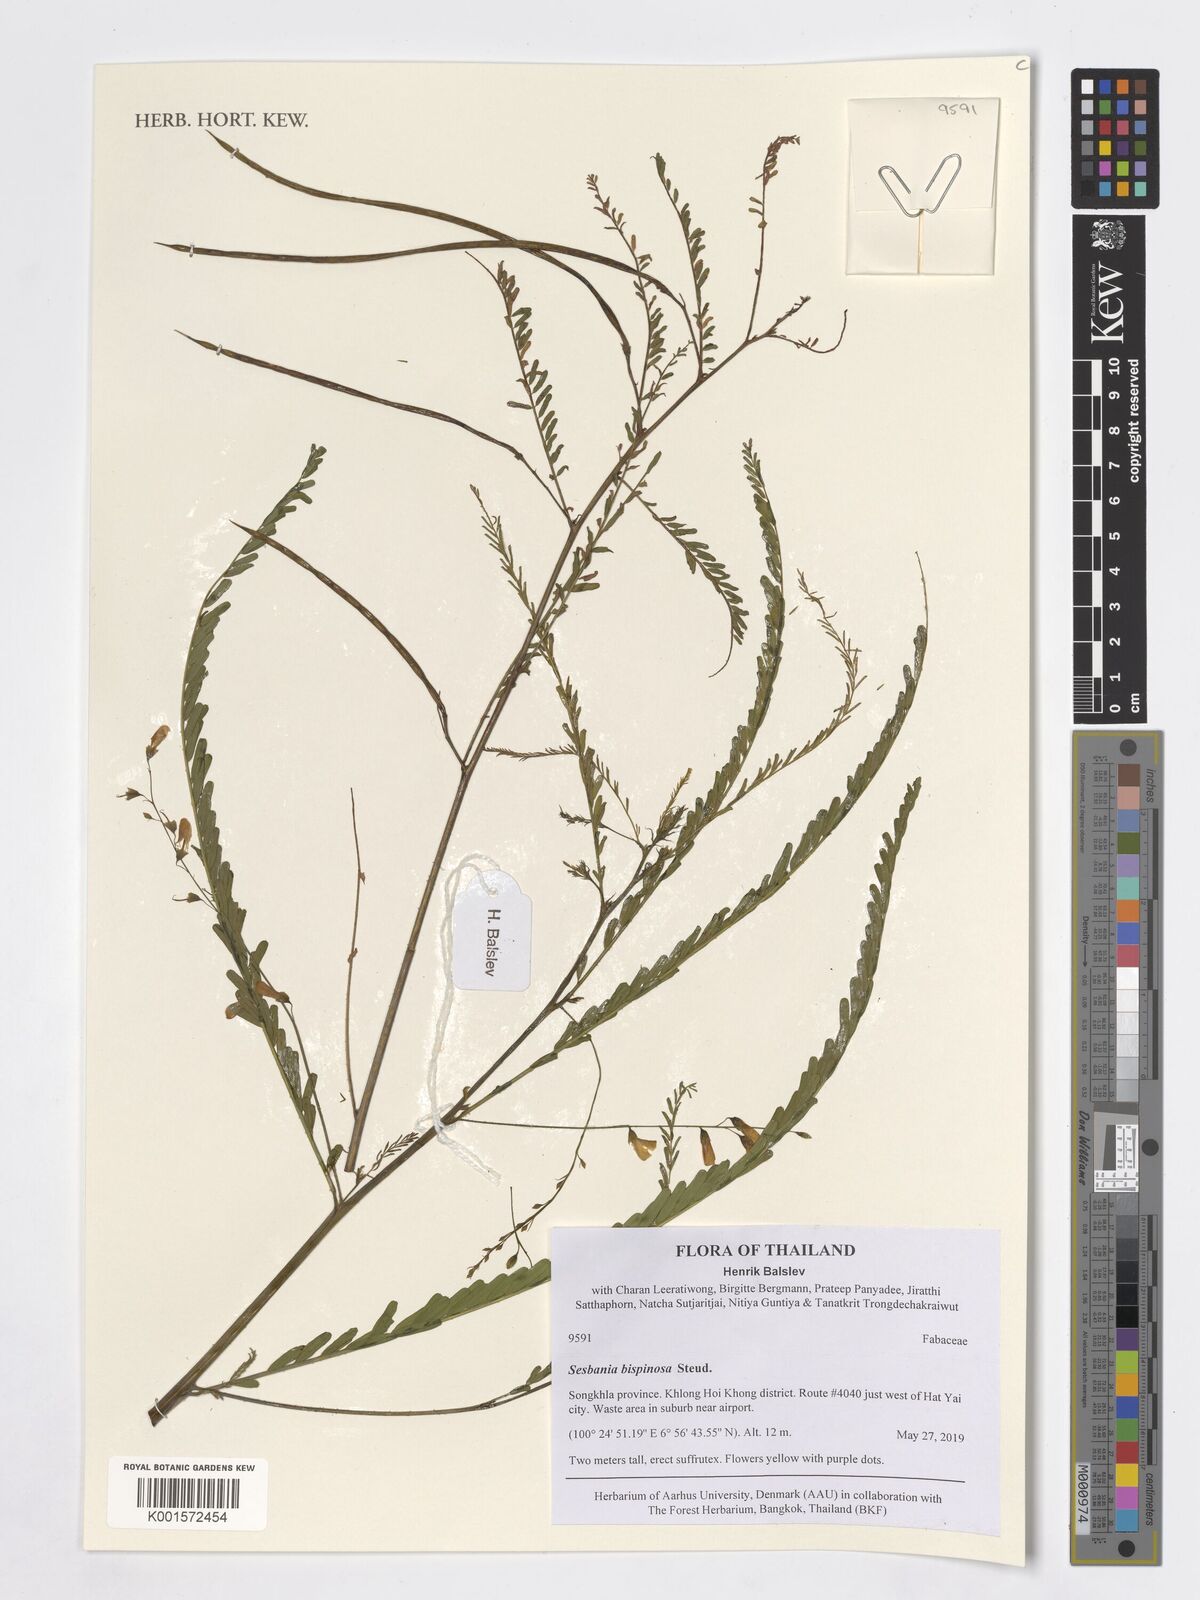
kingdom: Plantae
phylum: Tracheophyta
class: Magnoliopsida
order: Fabales
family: Fabaceae
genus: Sesbania
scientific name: Sesbania bispinosa
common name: Sesbania pea
